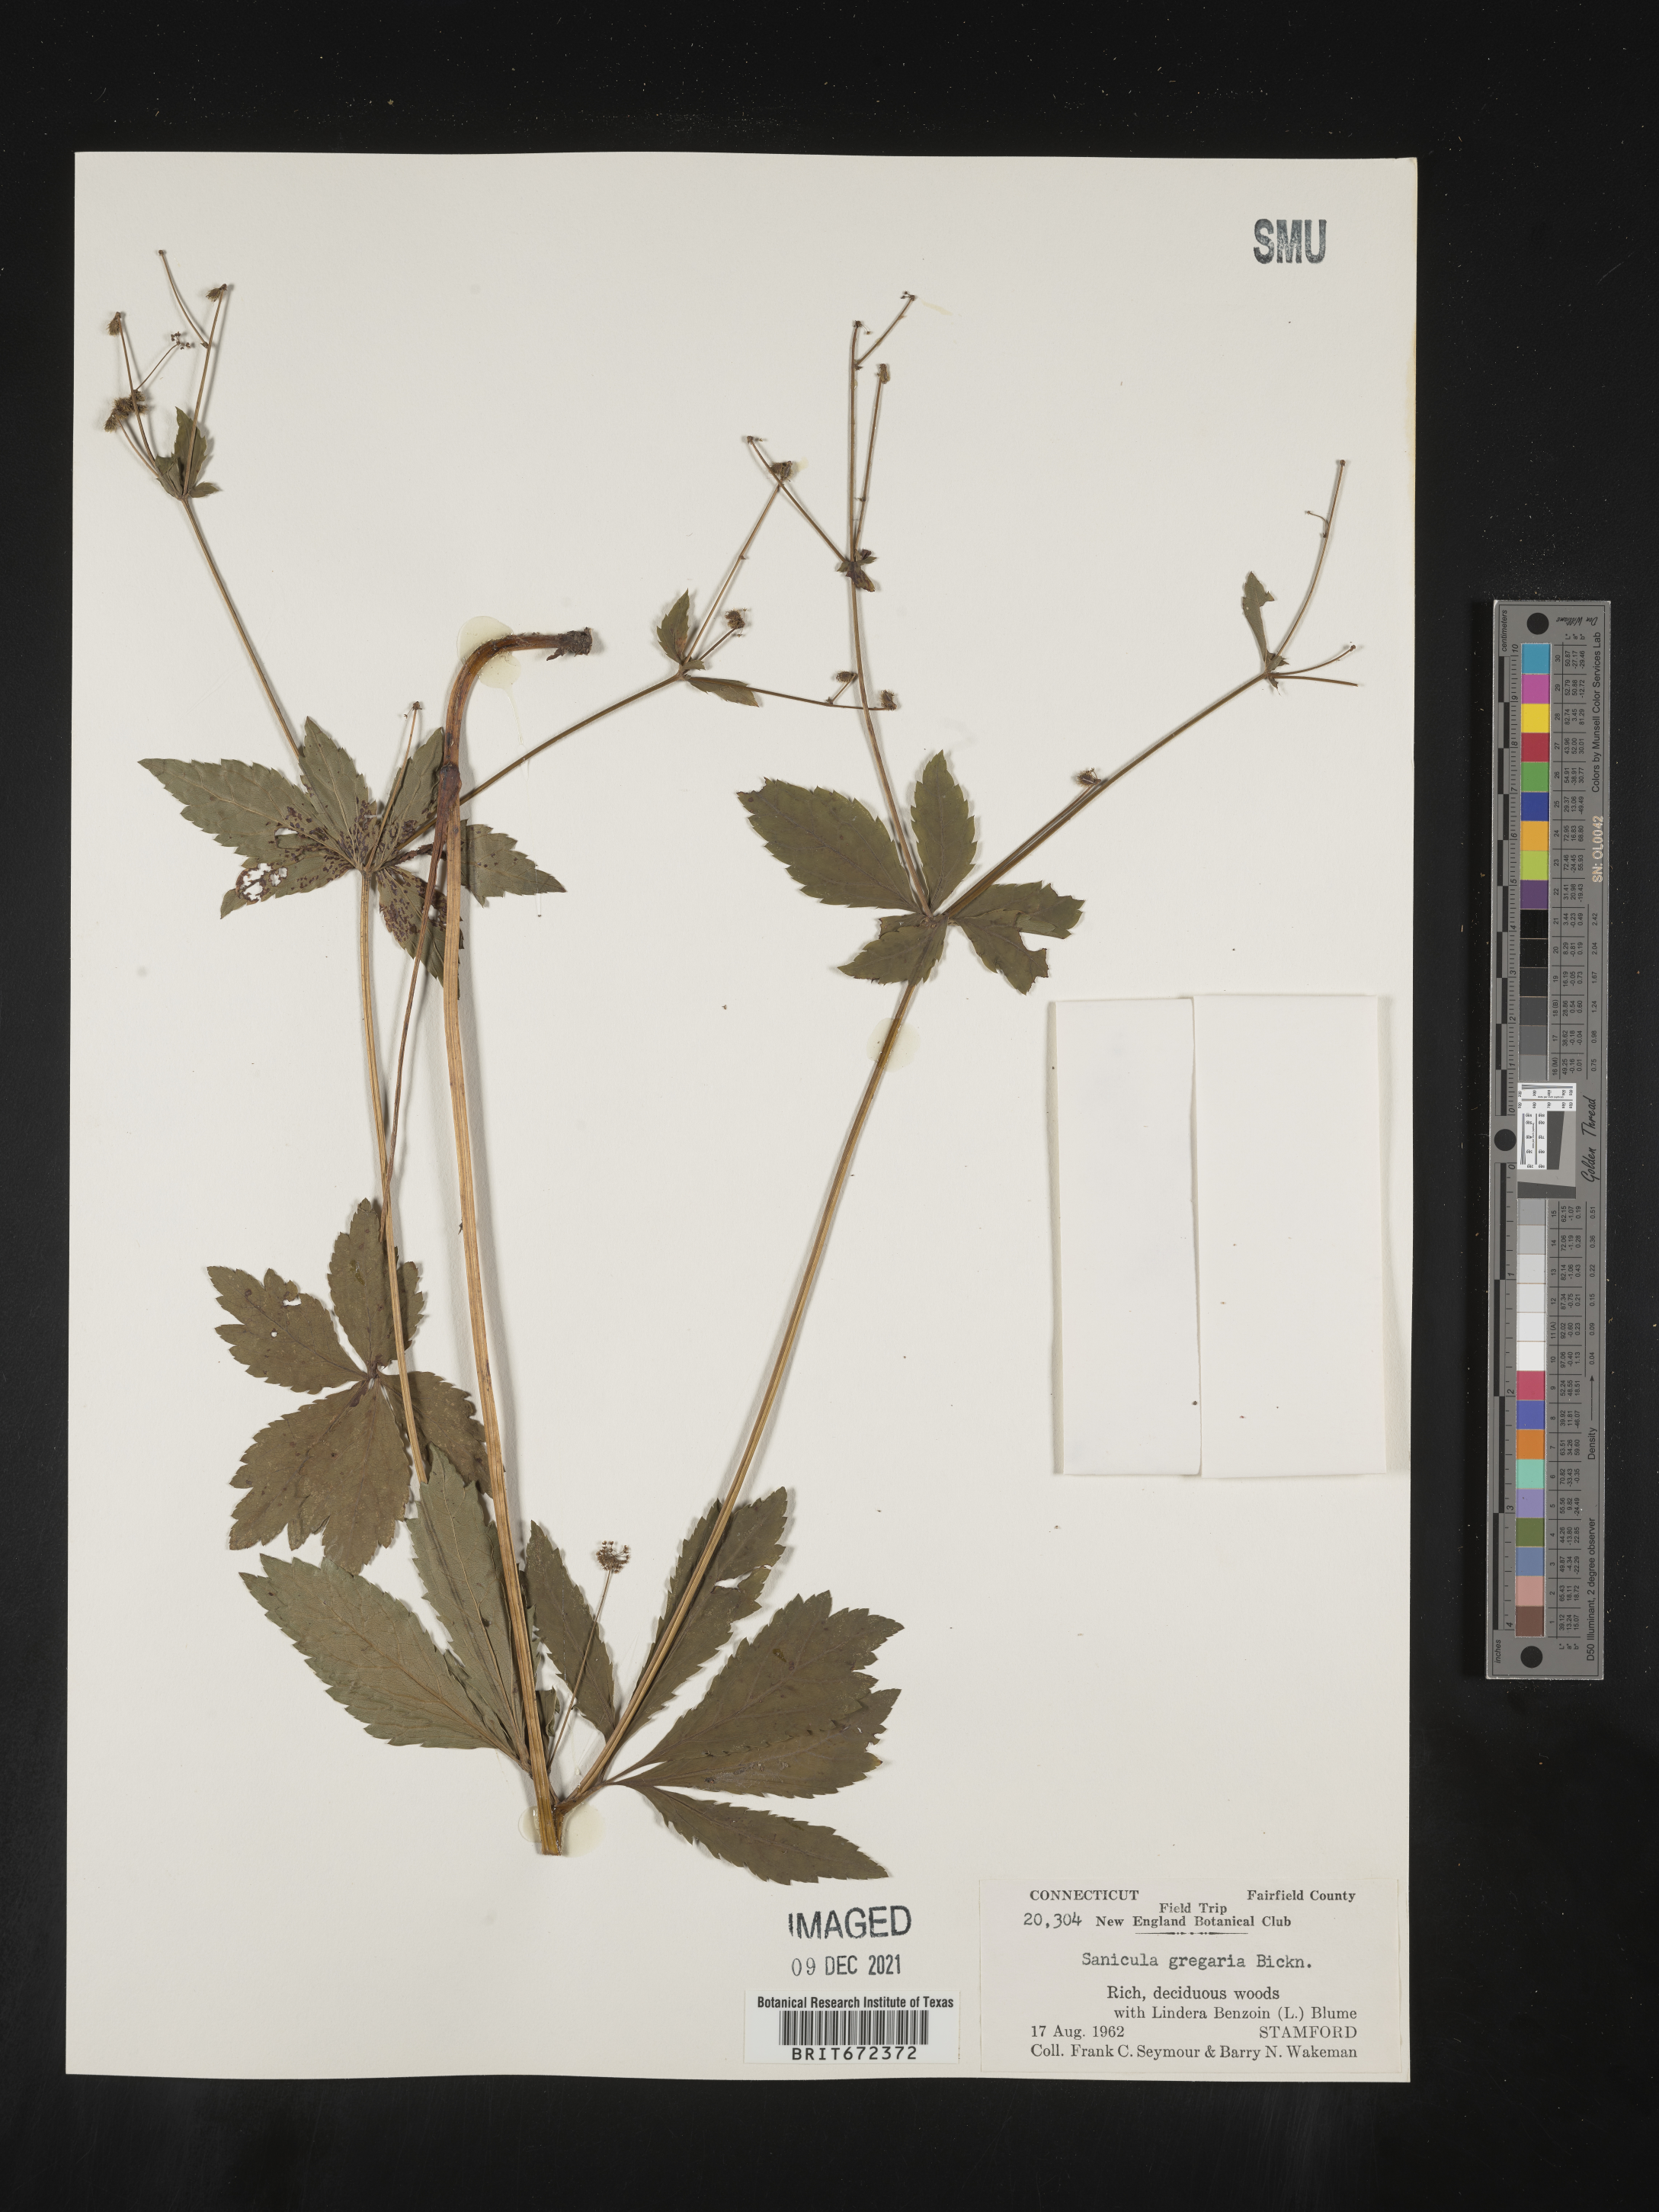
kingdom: Plantae
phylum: Tracheophyta
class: Magnoliopsida
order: Apiales
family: Apiaceae
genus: Sanicula
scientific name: Sanicula odorata
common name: Cluster sanicle
